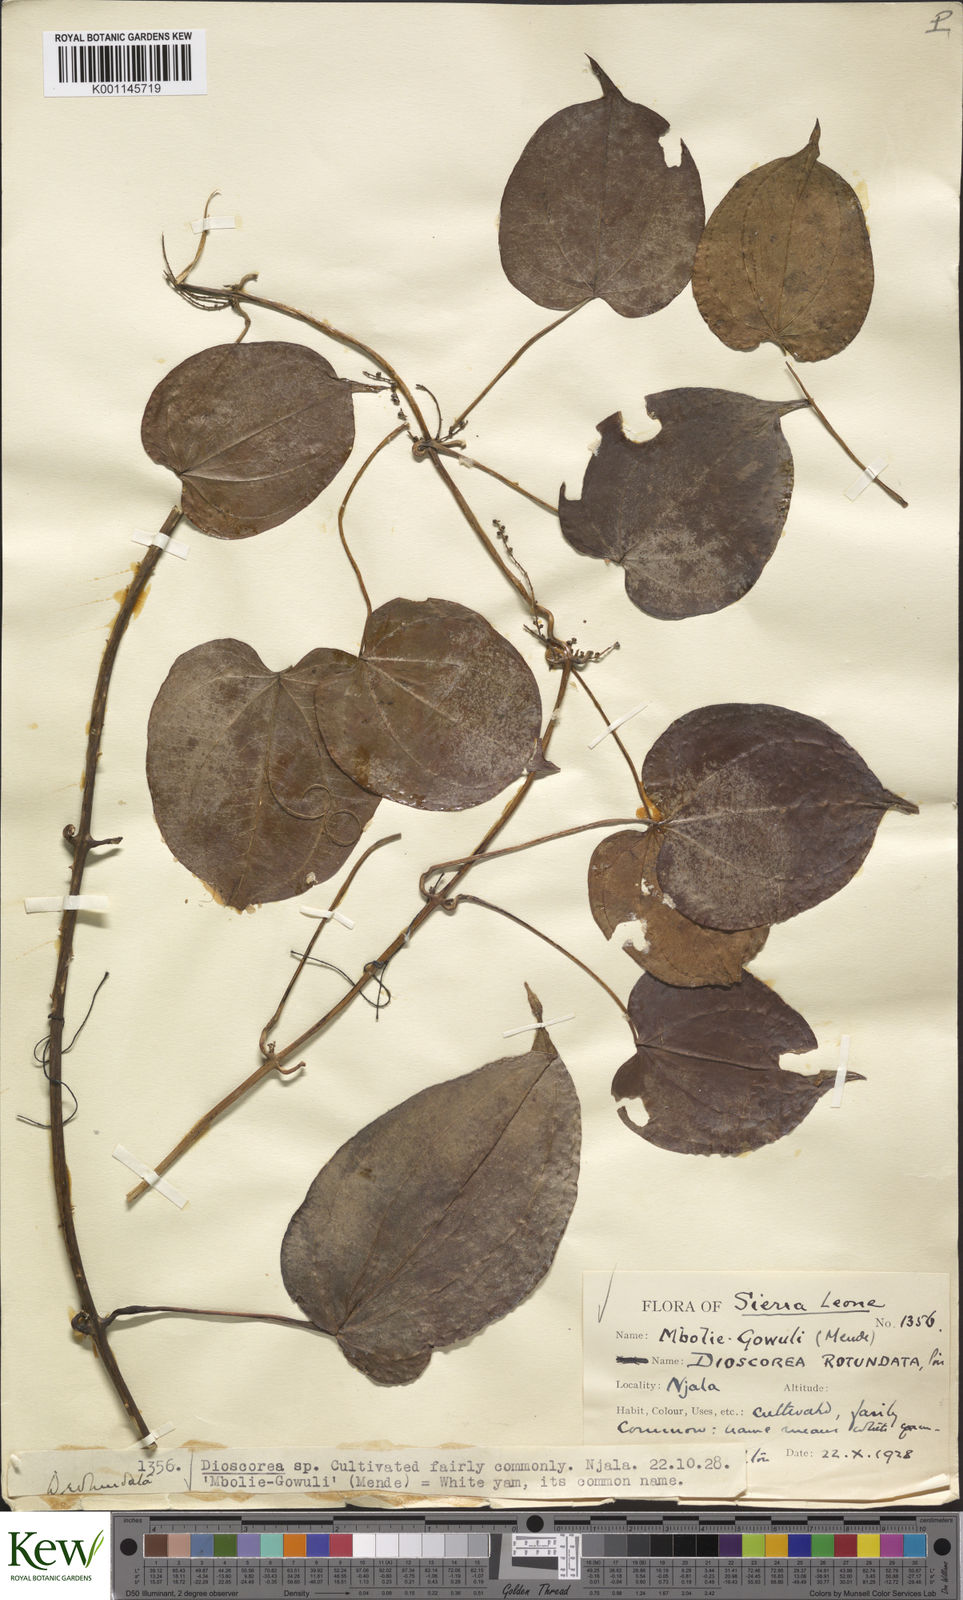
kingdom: Plantae
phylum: Tracheophyta
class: Liliopsida
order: Dioscoreales
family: Dioscoreaceae
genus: Dioscorea
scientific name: Dioscorea cayenensis
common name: Attoto yam
